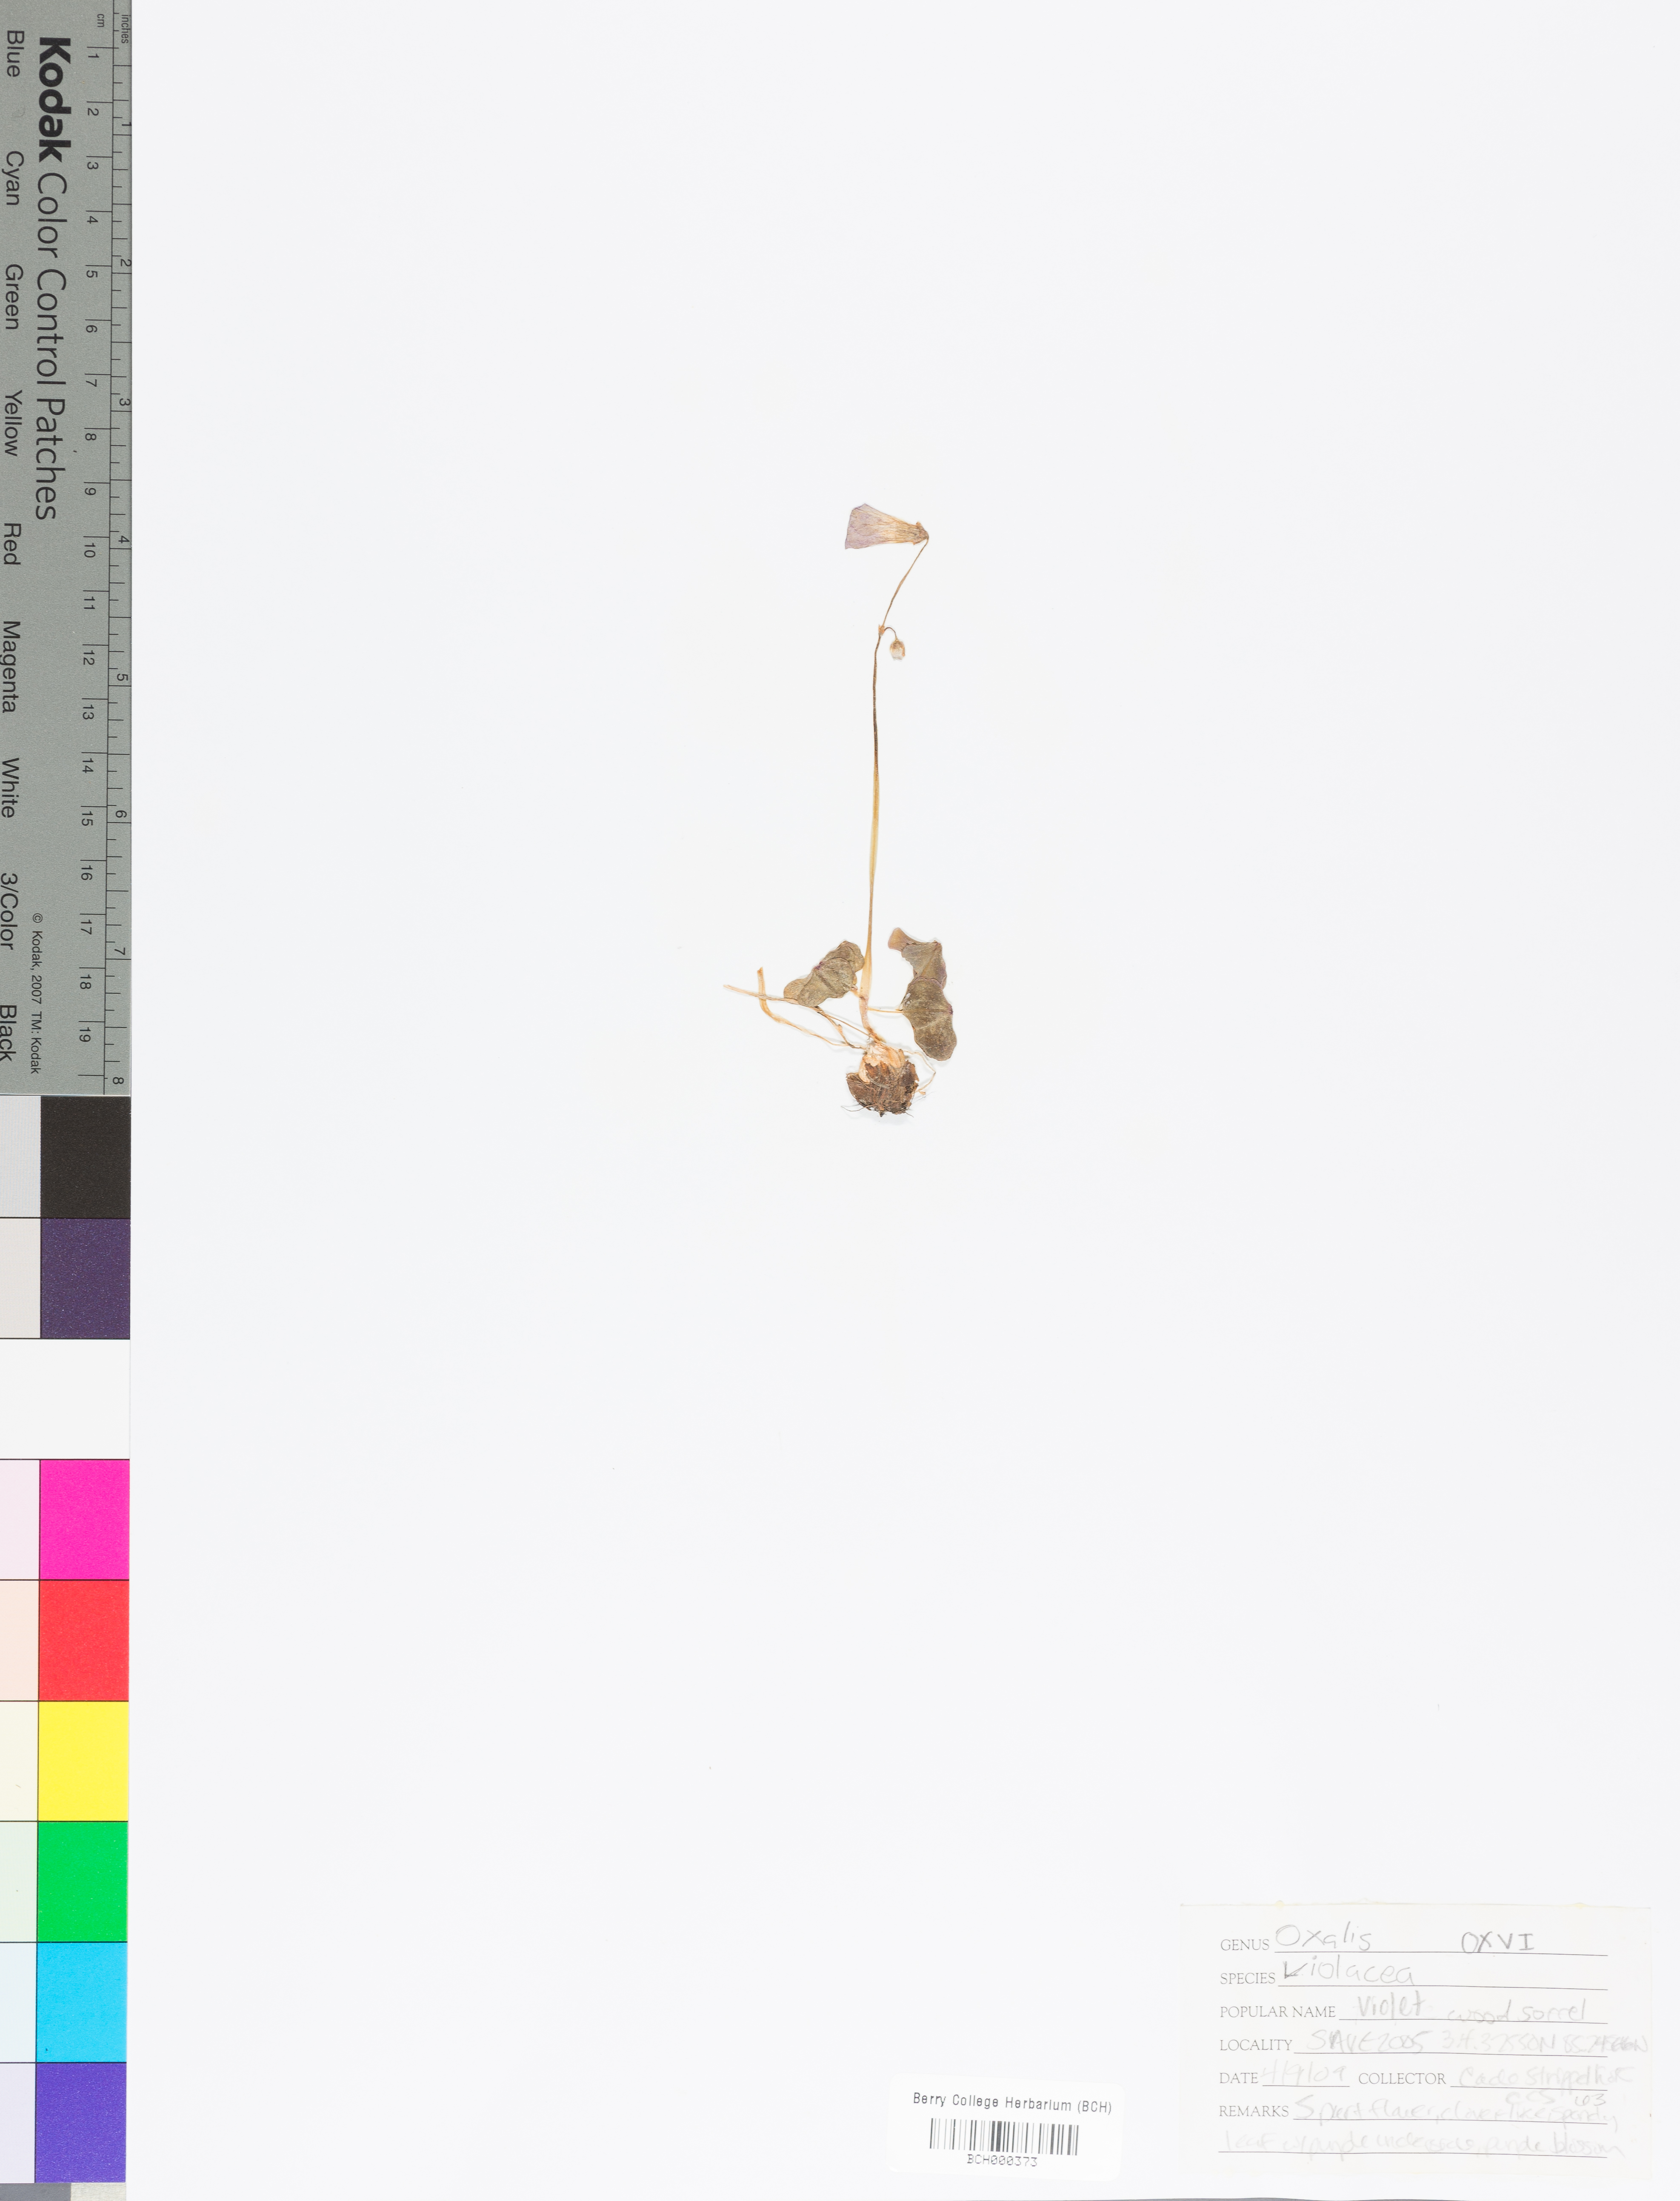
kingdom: Plantae
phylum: Tracheophyta
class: Magnoliopsida
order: Oxalidales
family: Oxalidaceae
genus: Oxalis
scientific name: Oxalis violacea
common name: Violet wood-sorrel
